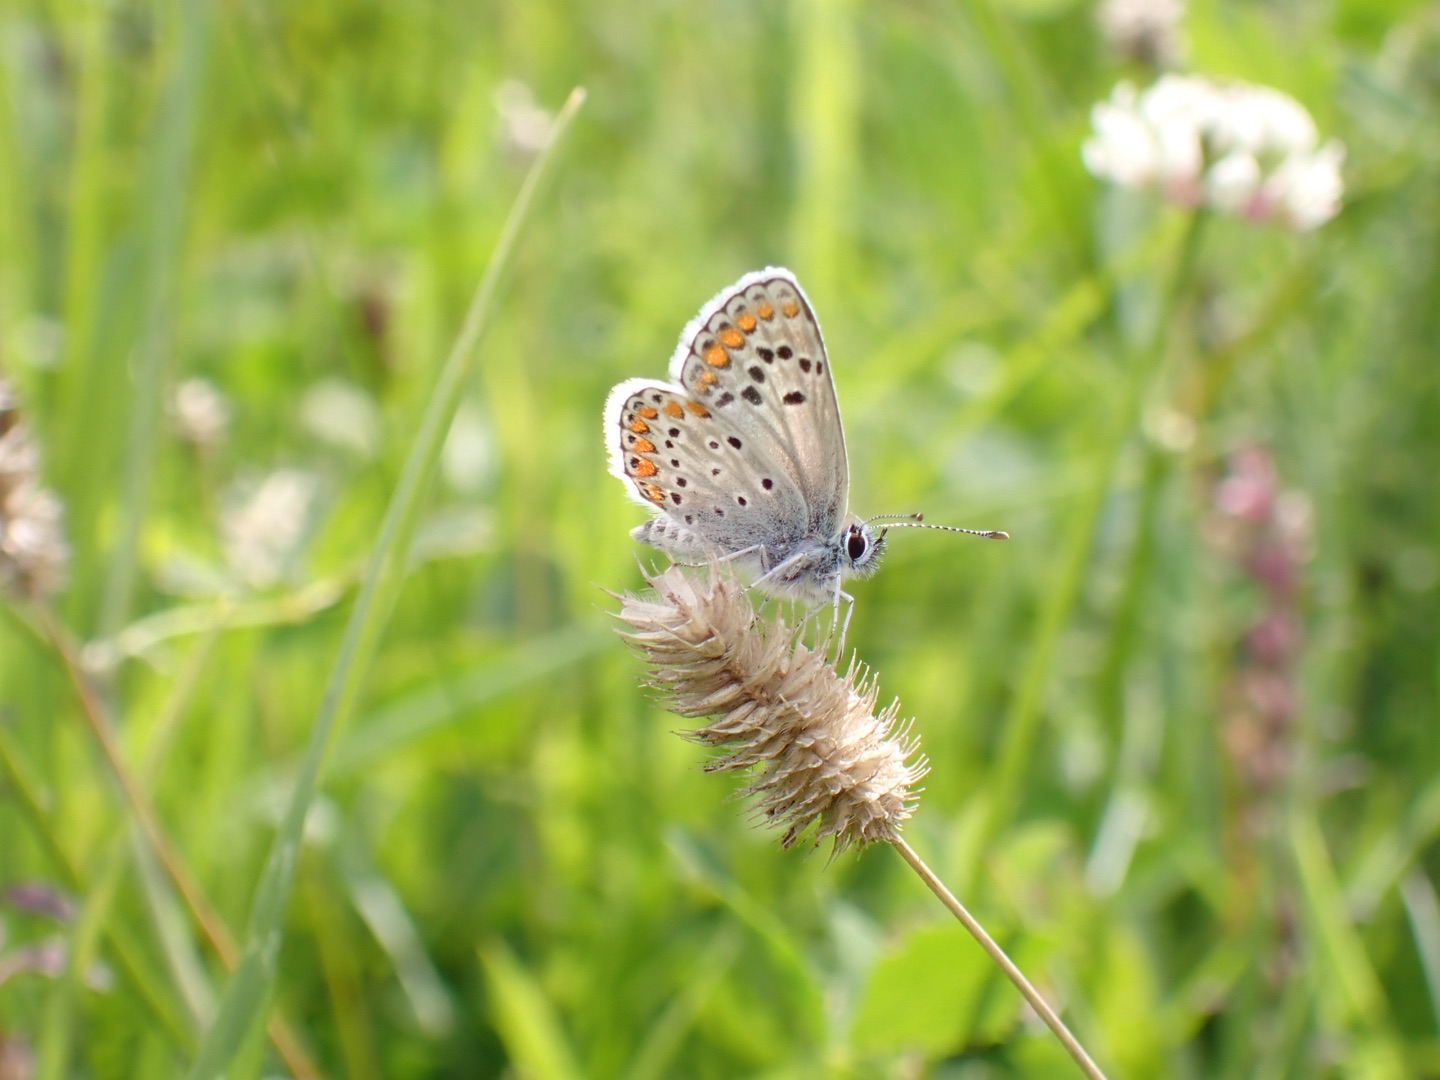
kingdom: Animalia
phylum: Arthropoda
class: Insecta
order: Lepidoptera
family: Lycaenidae
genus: Aricia
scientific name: Aricia agestis
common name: Rødplettet blåfugl
